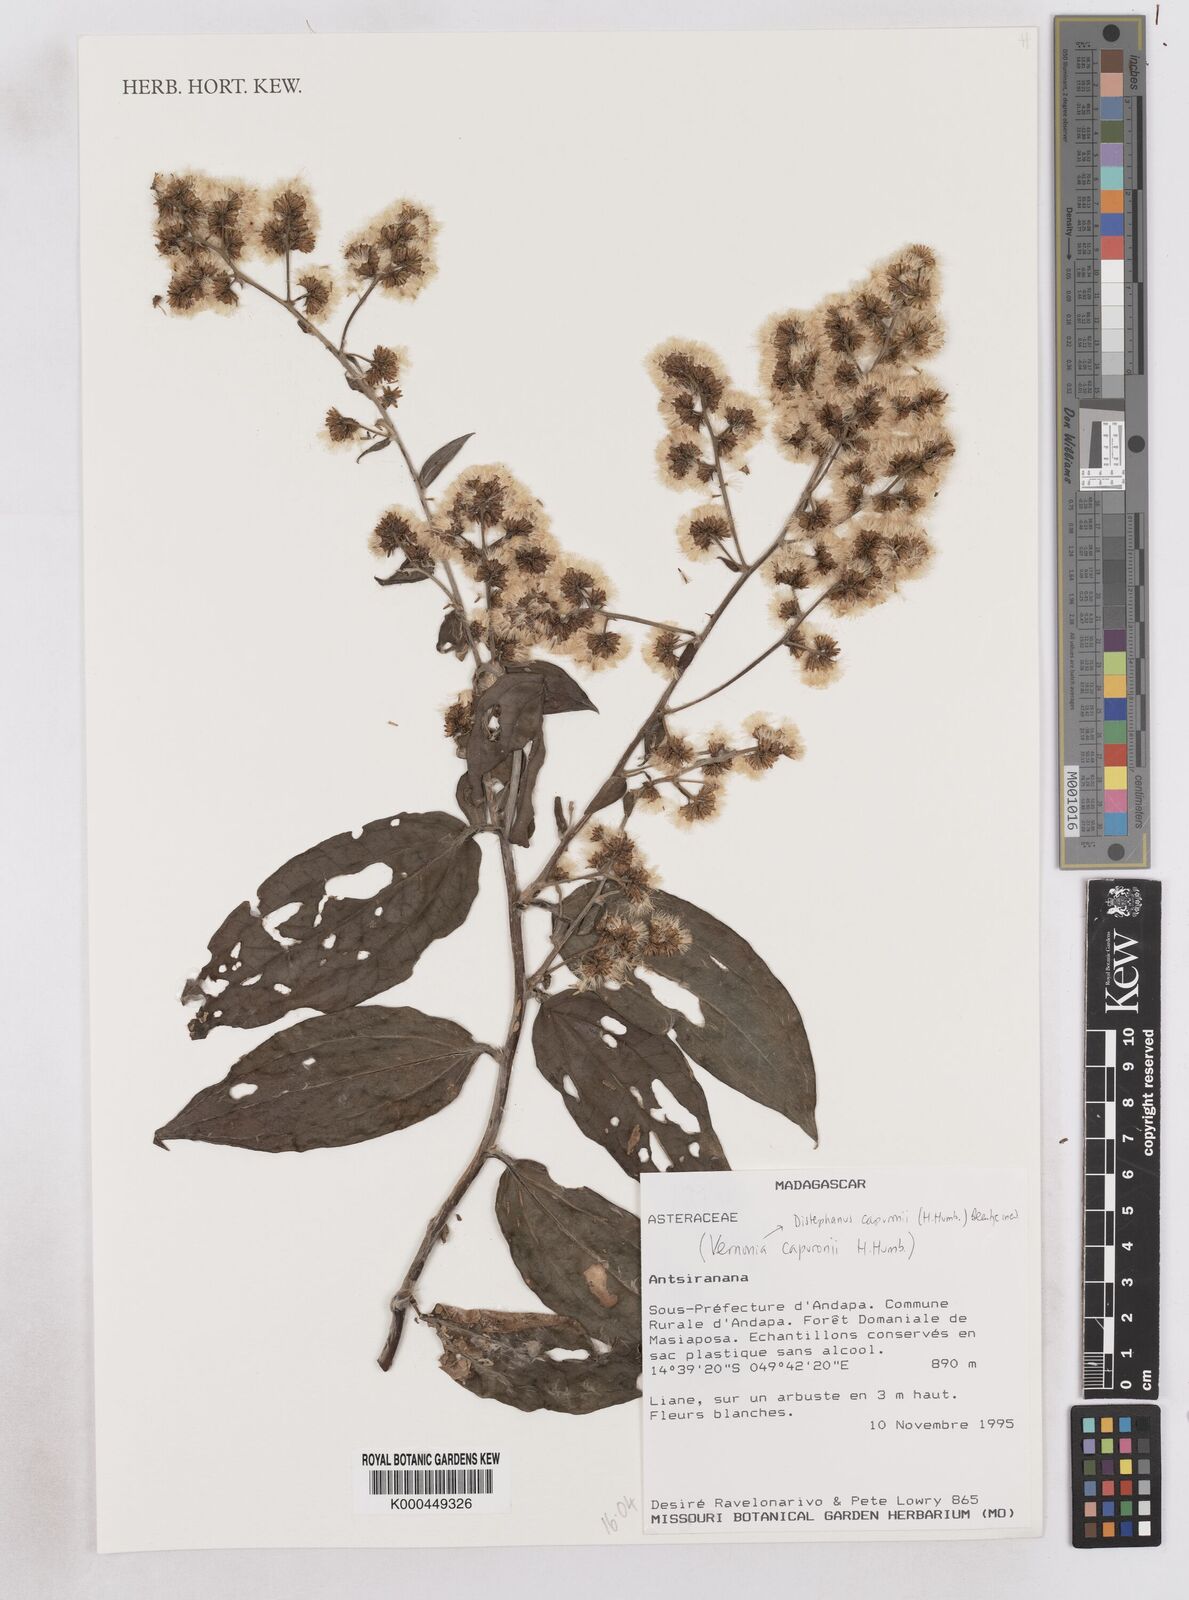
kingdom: Plantae
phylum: Tracheophyta
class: Magnoliopsida
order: Asterales
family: Asteraceae
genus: Distephanus
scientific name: Distephanus capuronii
